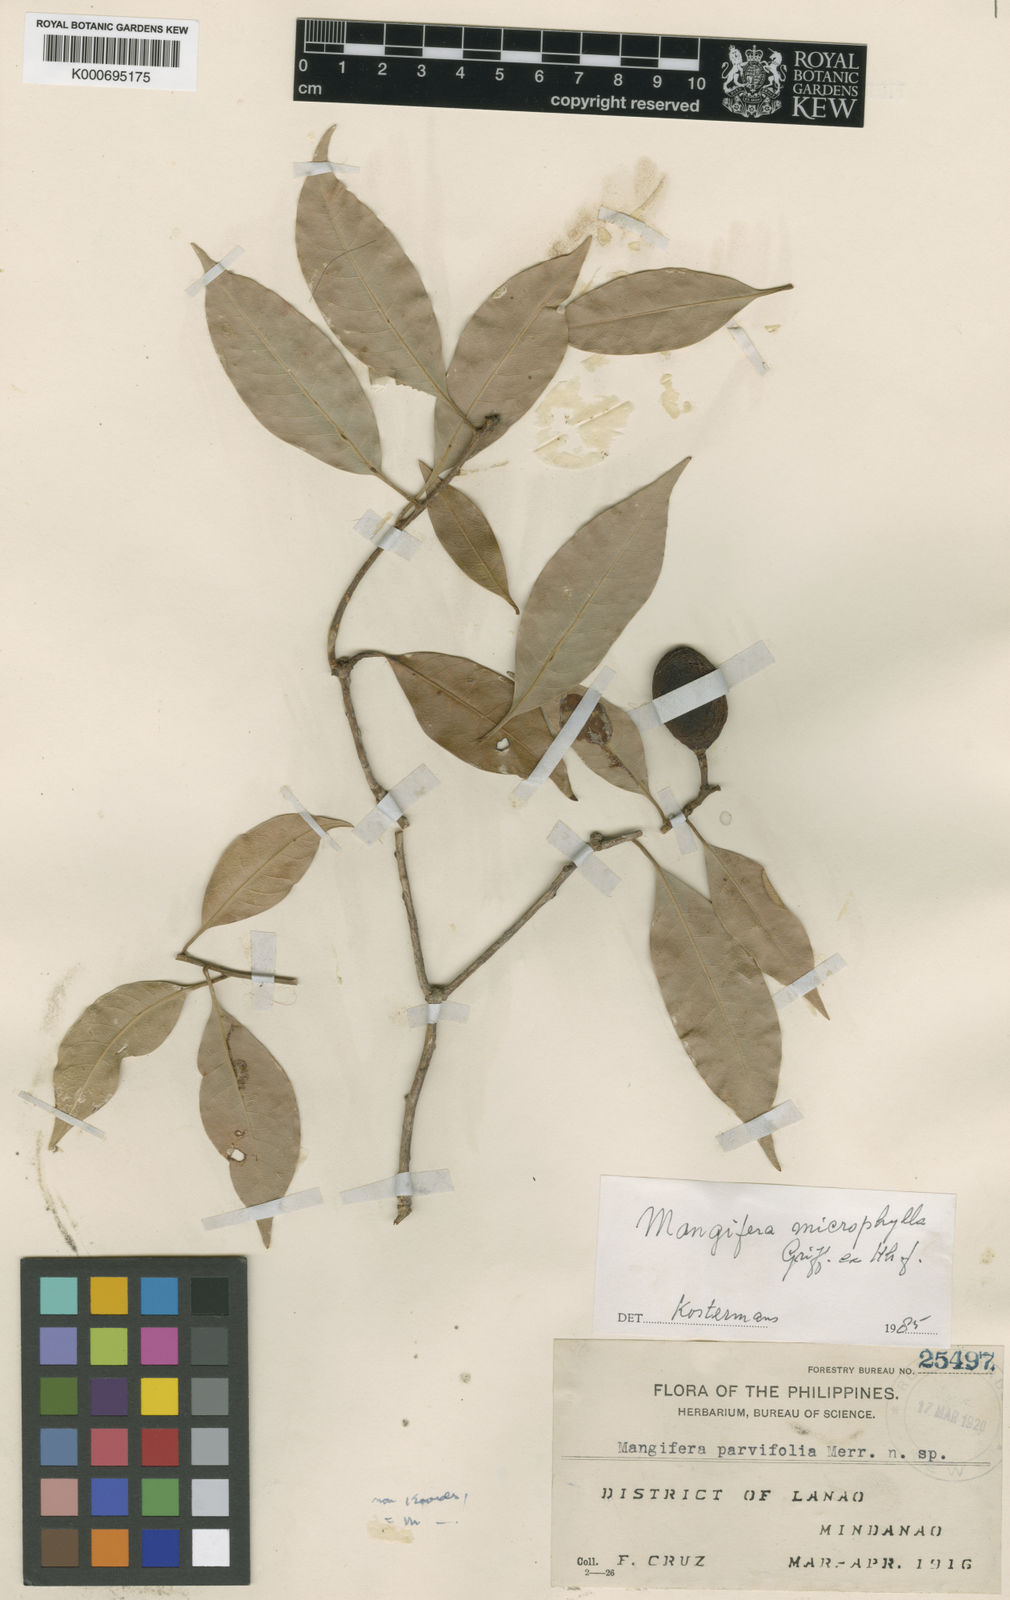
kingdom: Plantae
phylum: Tracheophyta
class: Magnoliopsida
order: Sapindales
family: Anacardiaceae
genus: Mangifera
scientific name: Mangifera altissima
